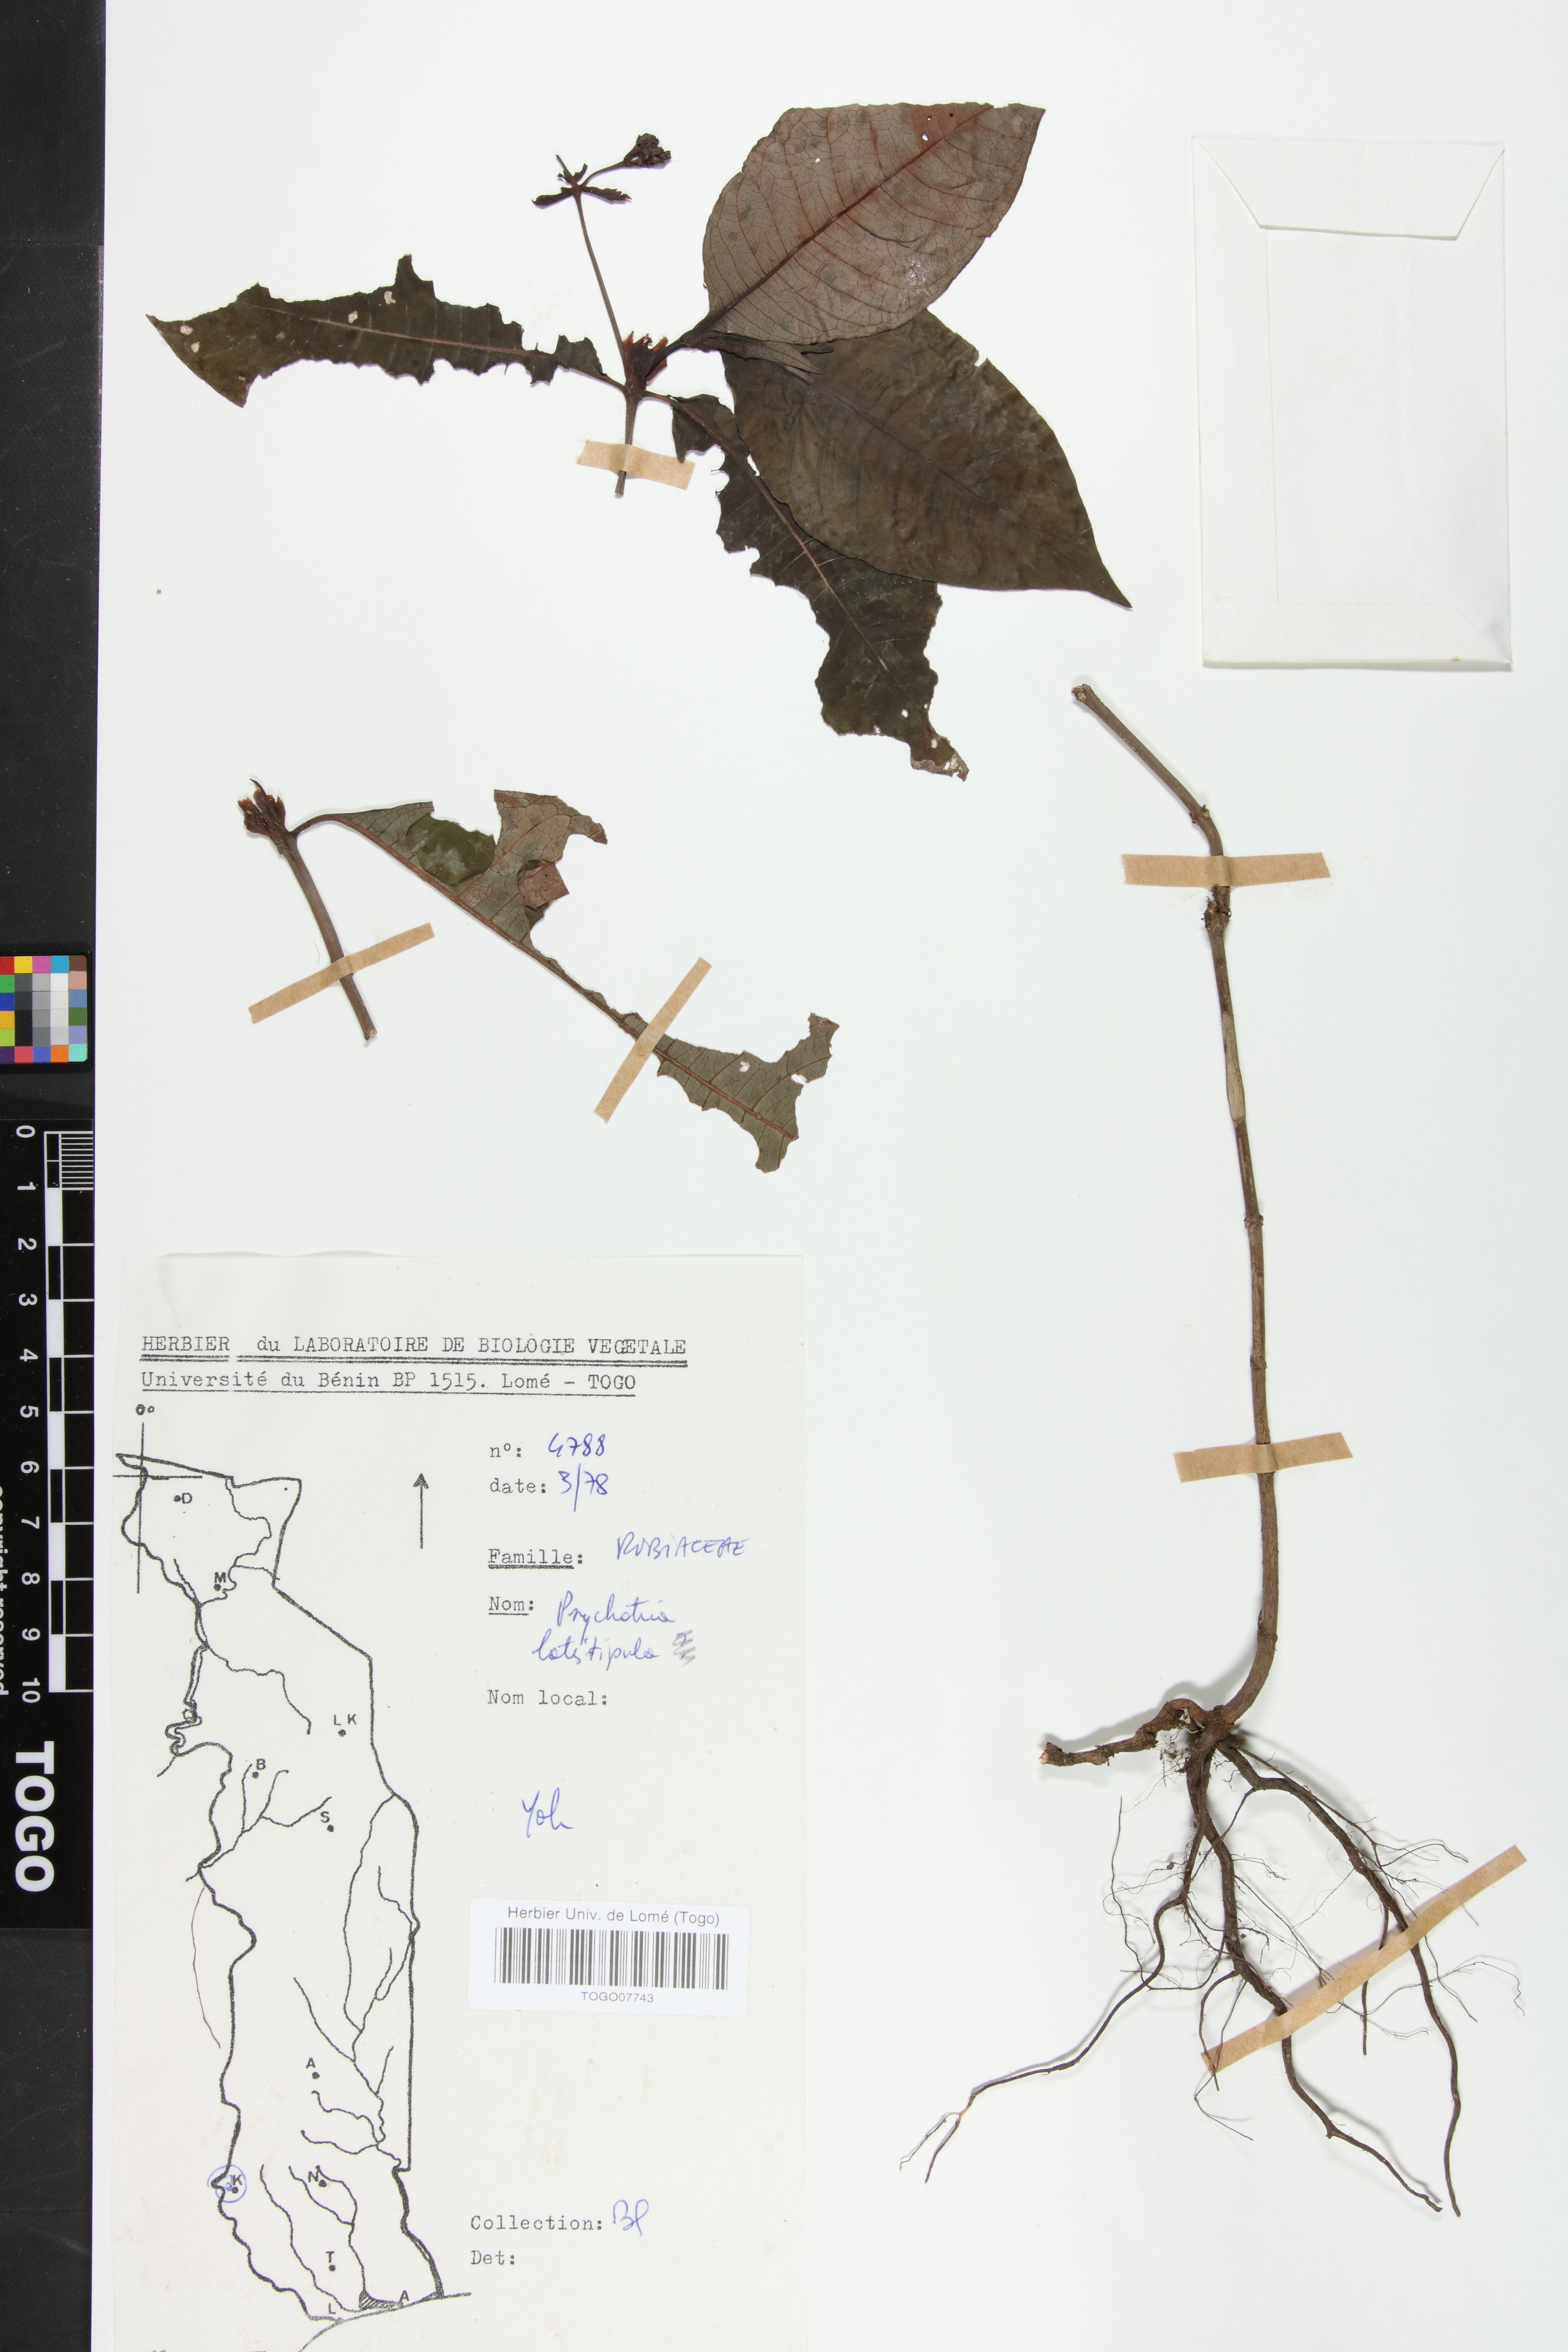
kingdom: Plantae
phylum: Tracheophyta
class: Magnoliopsida
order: Gentianales
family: Rubiaceae
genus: Psychotria
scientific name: Psychotria latistipula
